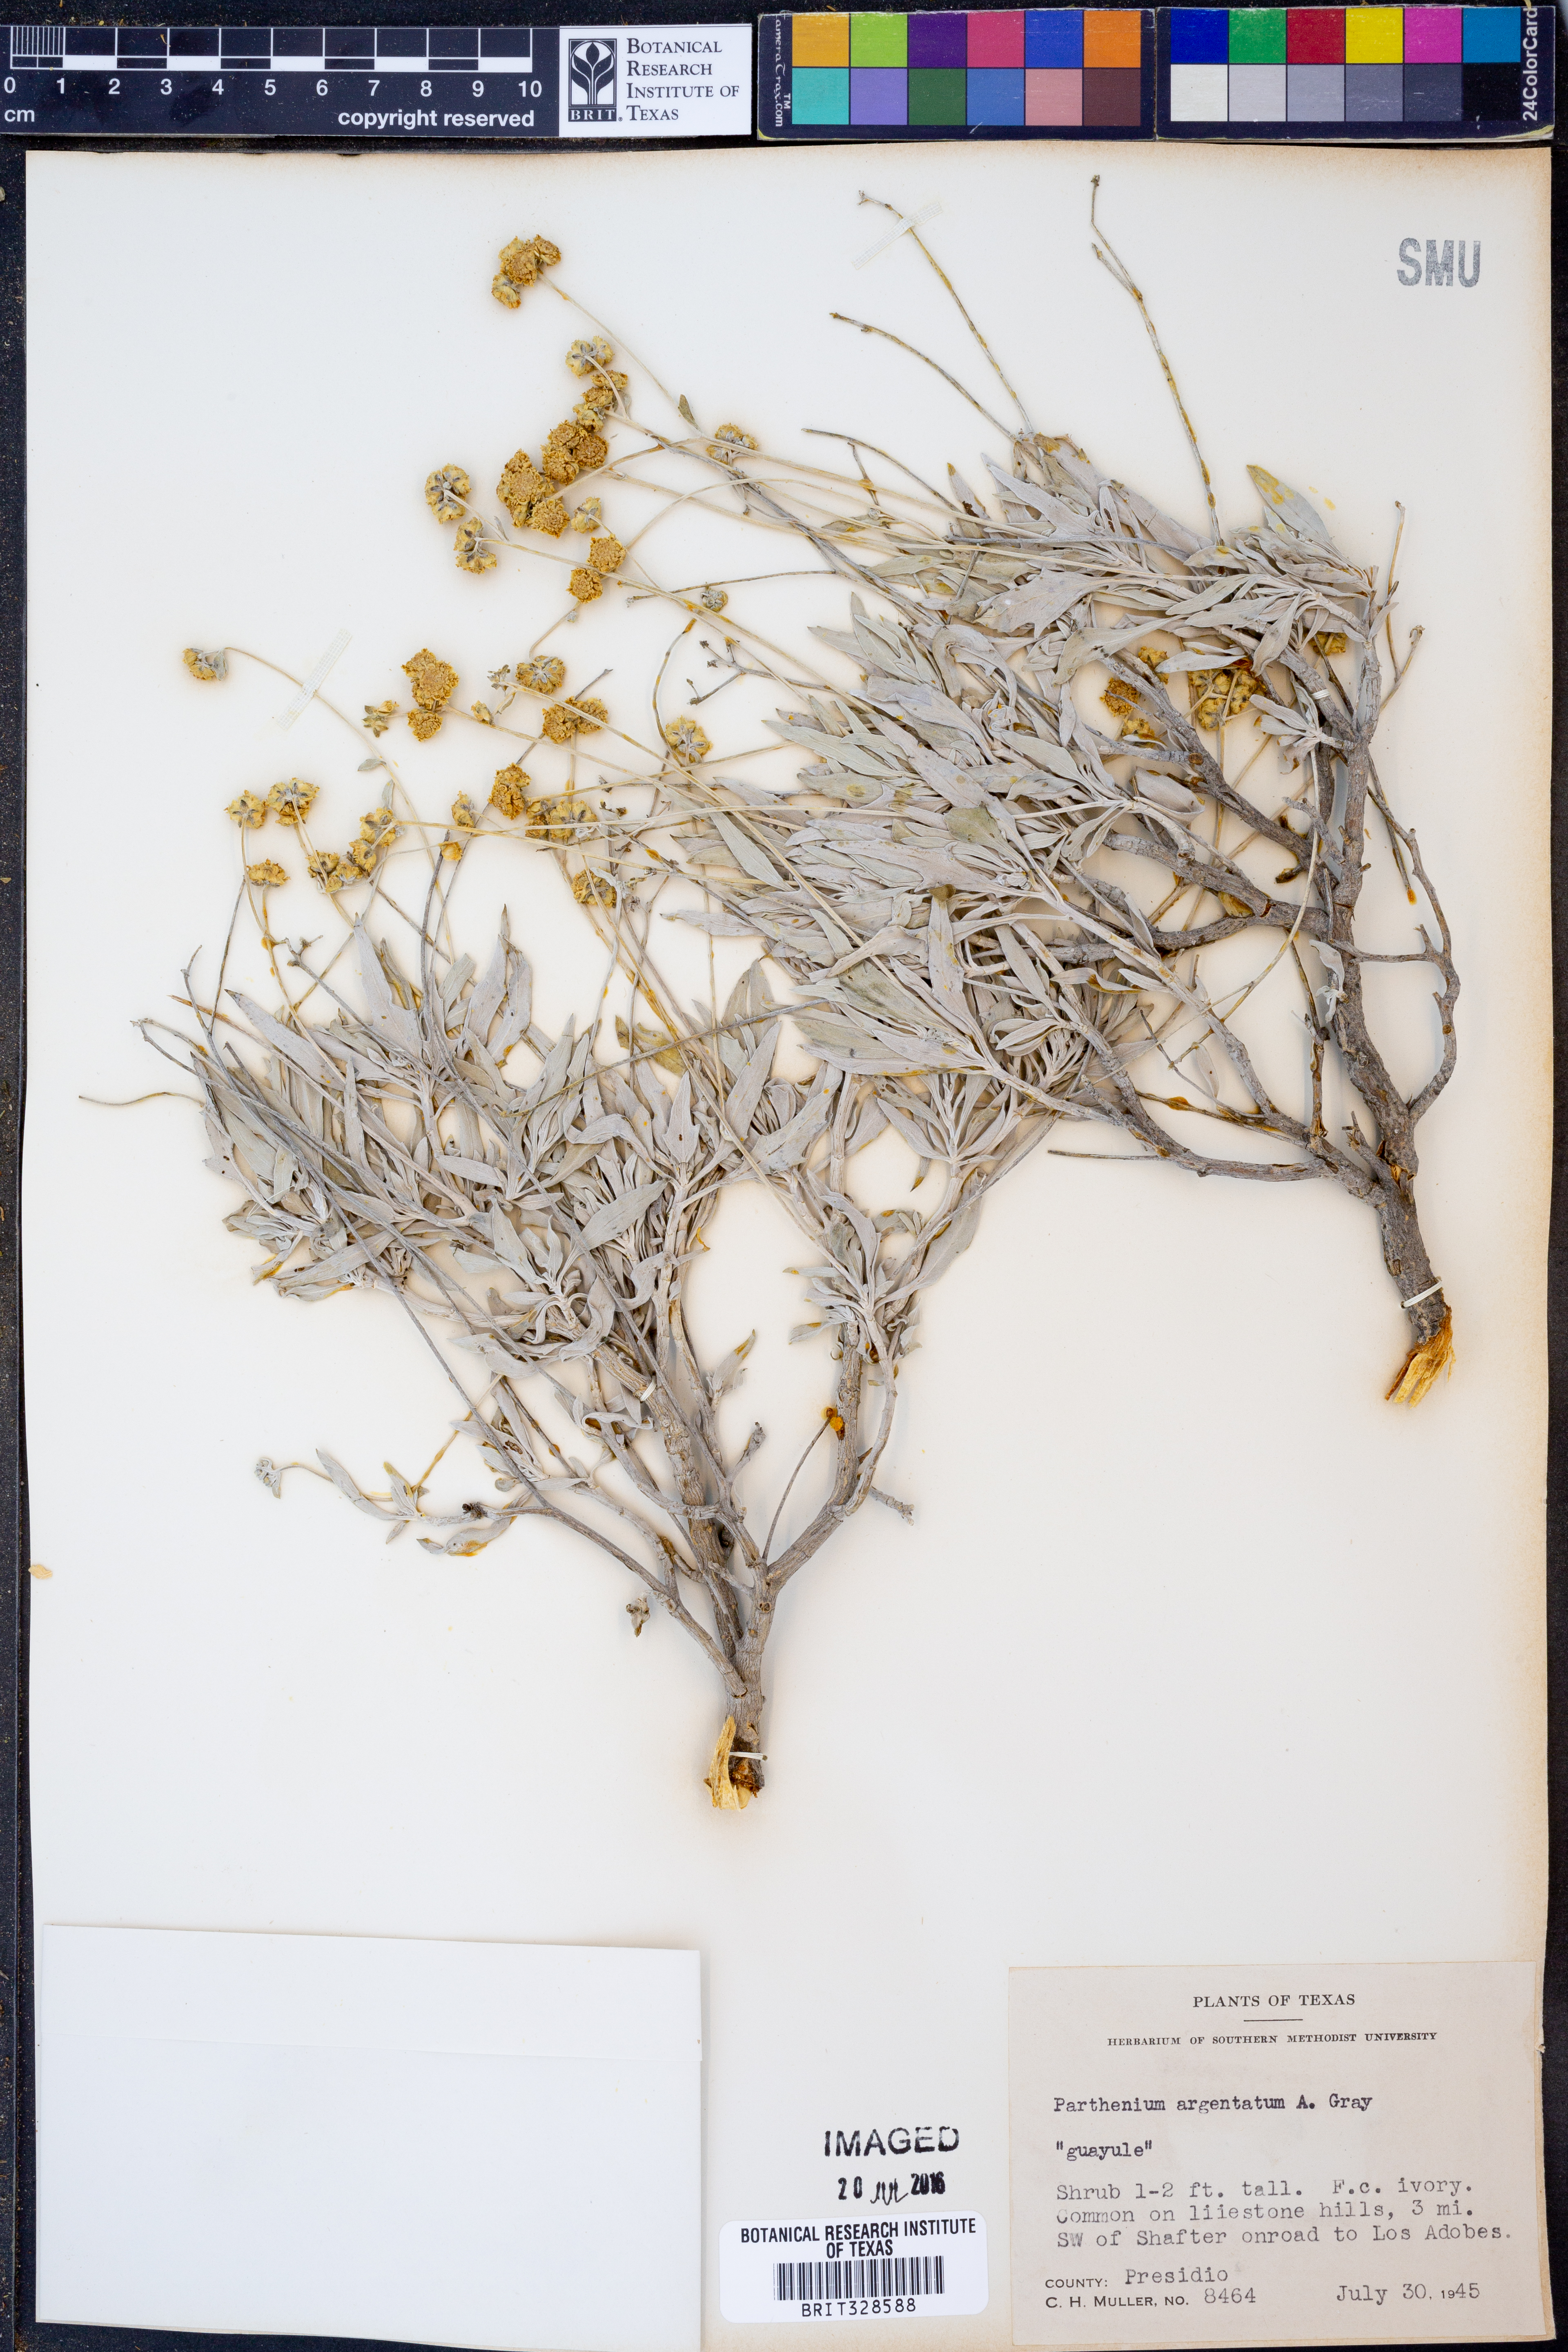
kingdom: Plantae
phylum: Tracheophyta
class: Magnoliopsida
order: Asterales
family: Asteraceae
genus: Parthenium
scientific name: Parthenium argentatum
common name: Guayule
